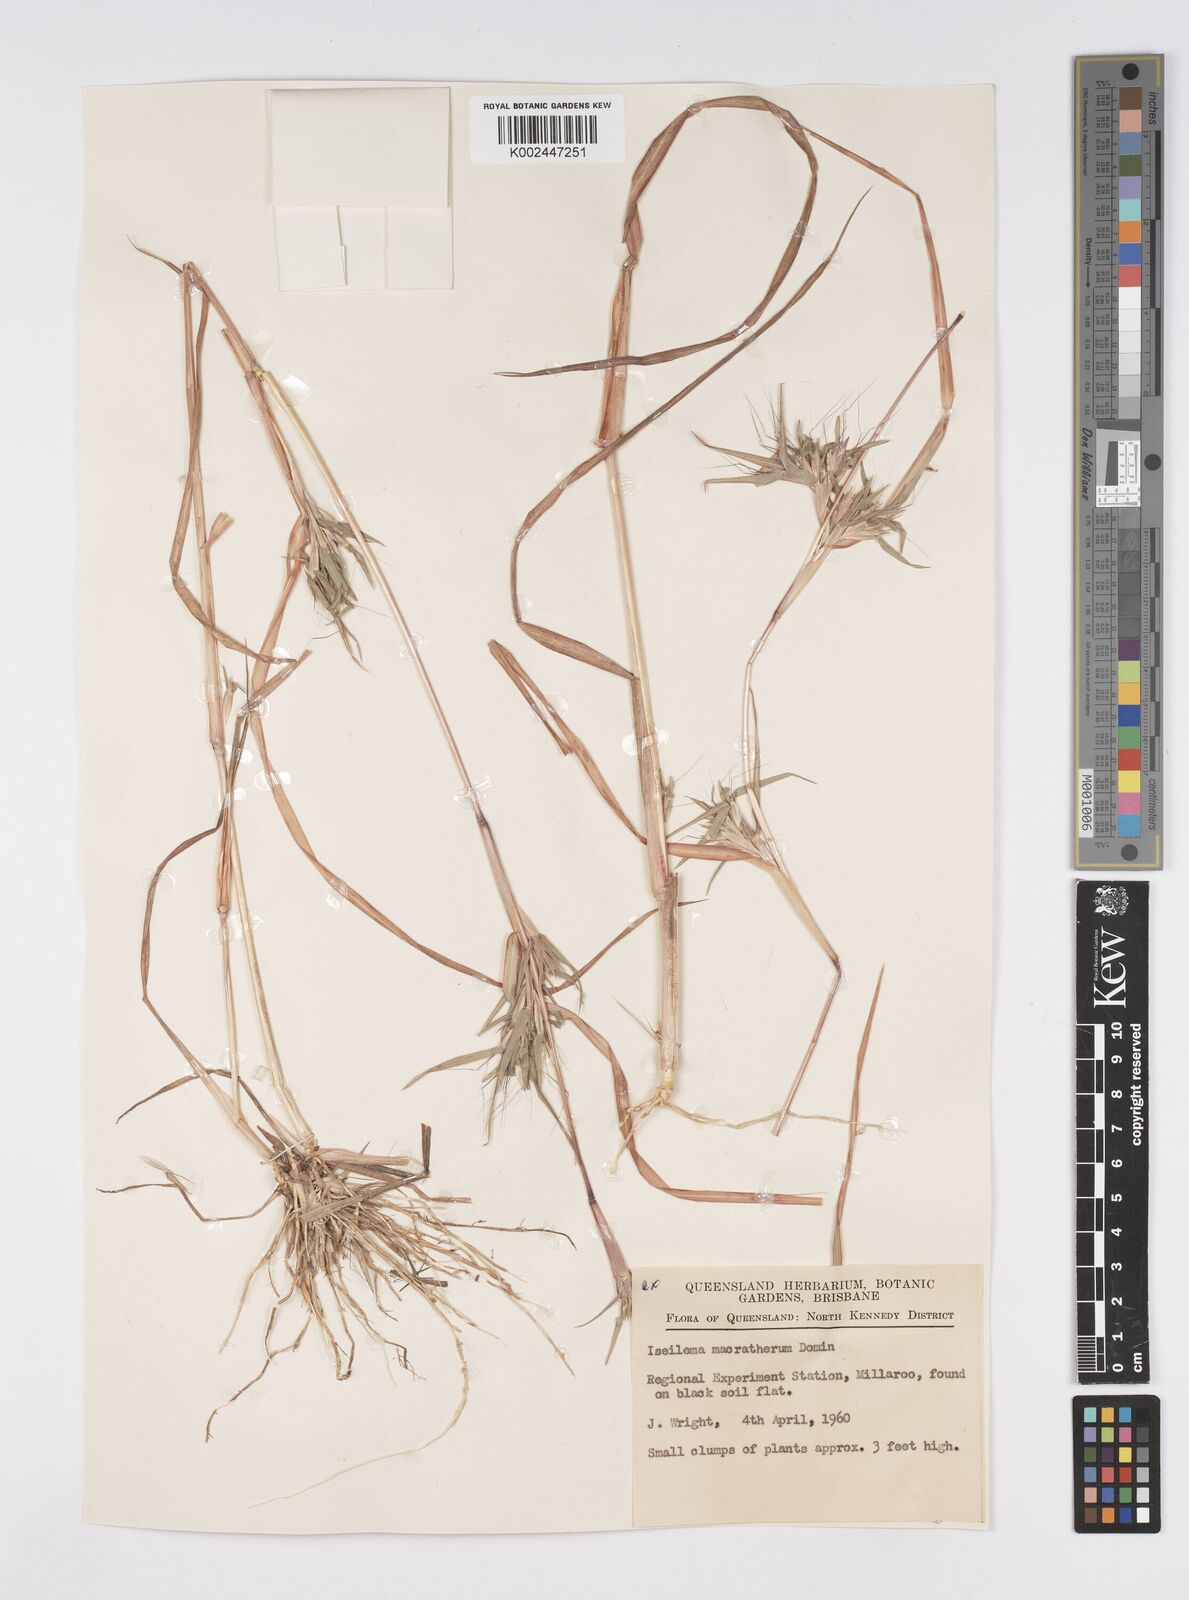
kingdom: Plantae
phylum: Tracheophyta
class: Liliopsida
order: Poales
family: Poaceae
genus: Iseilema
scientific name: Iseilema macratherum
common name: Bull flinders grass
